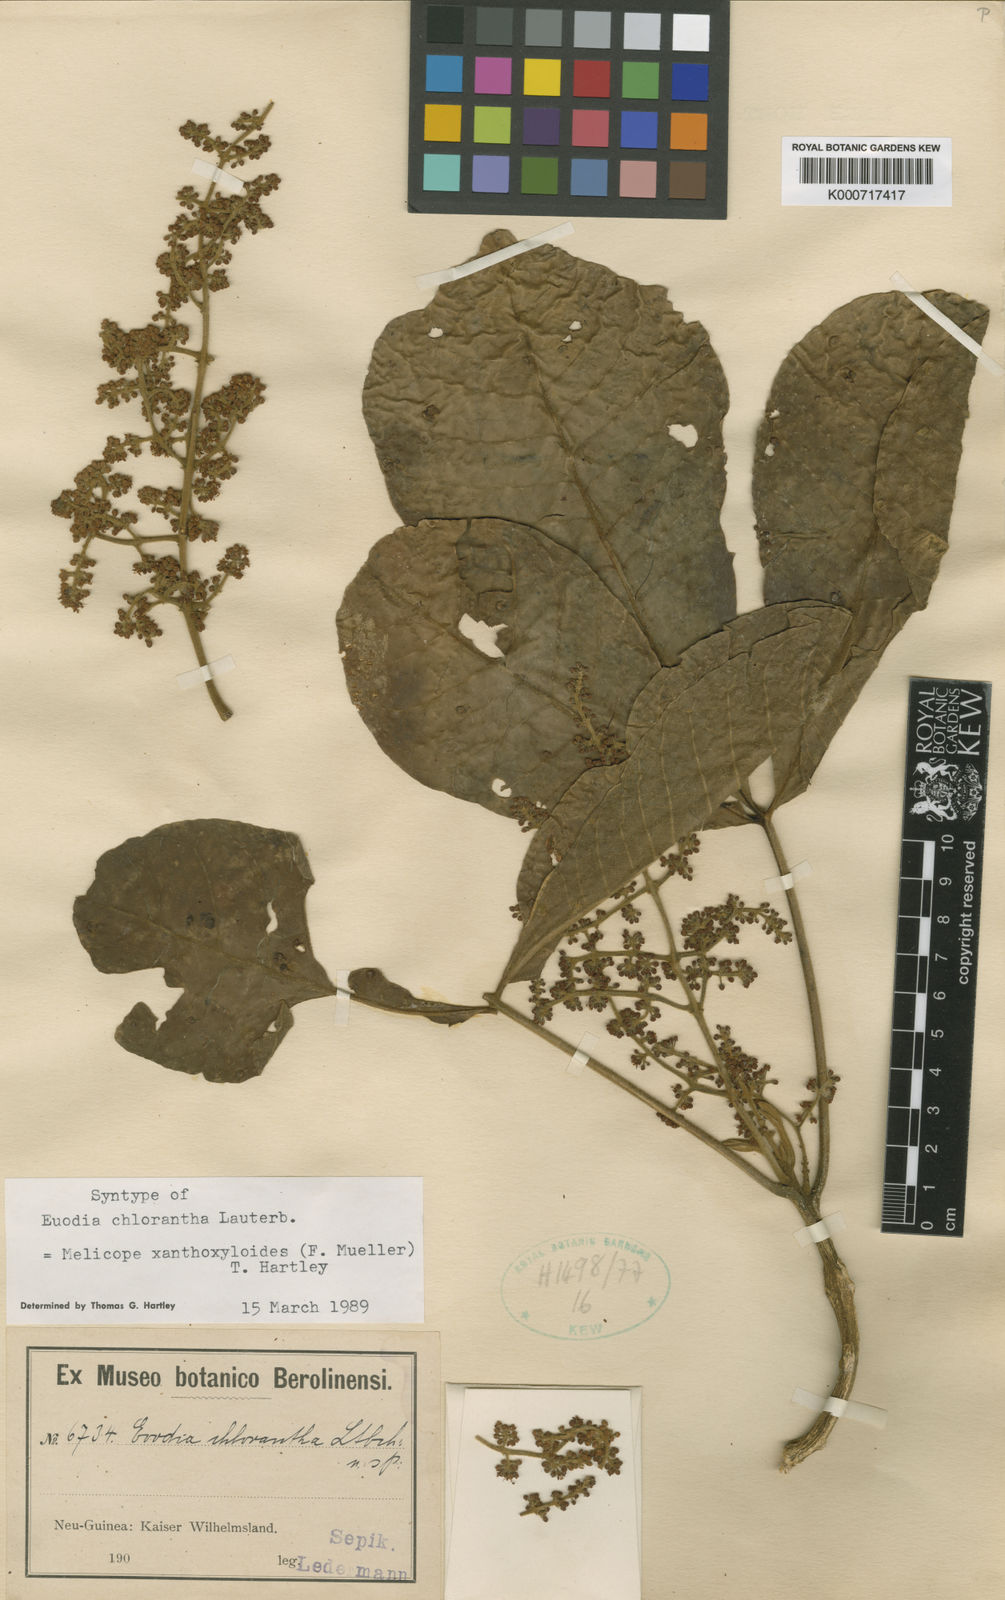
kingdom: Plantae
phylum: Tracheophyta
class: Magnoliopsida
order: Sapindales
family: Rutaceae
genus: Melicope
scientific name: Melicope xanthoxyloides
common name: Yellow evodia
